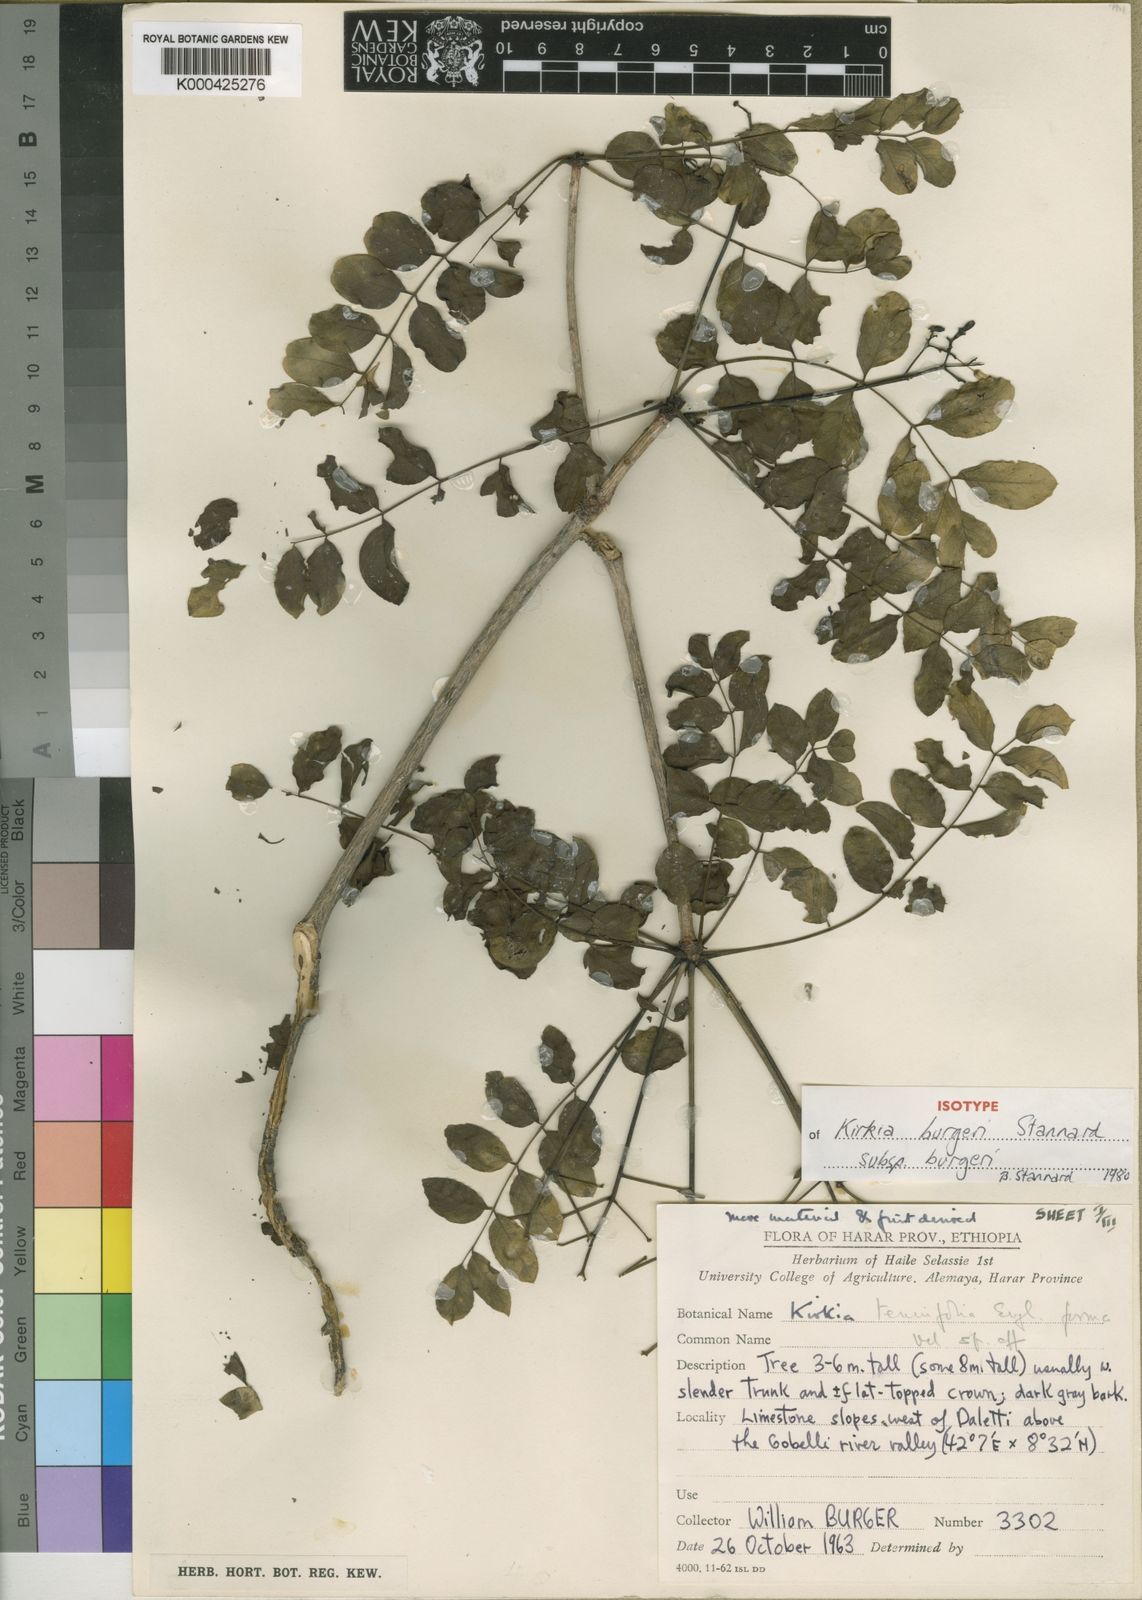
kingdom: Plantae
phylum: Tracheophyta
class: Magnoliopsida
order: Sapindales
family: Kirkiaceae
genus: Kirkia
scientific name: Kirkia burgeri
